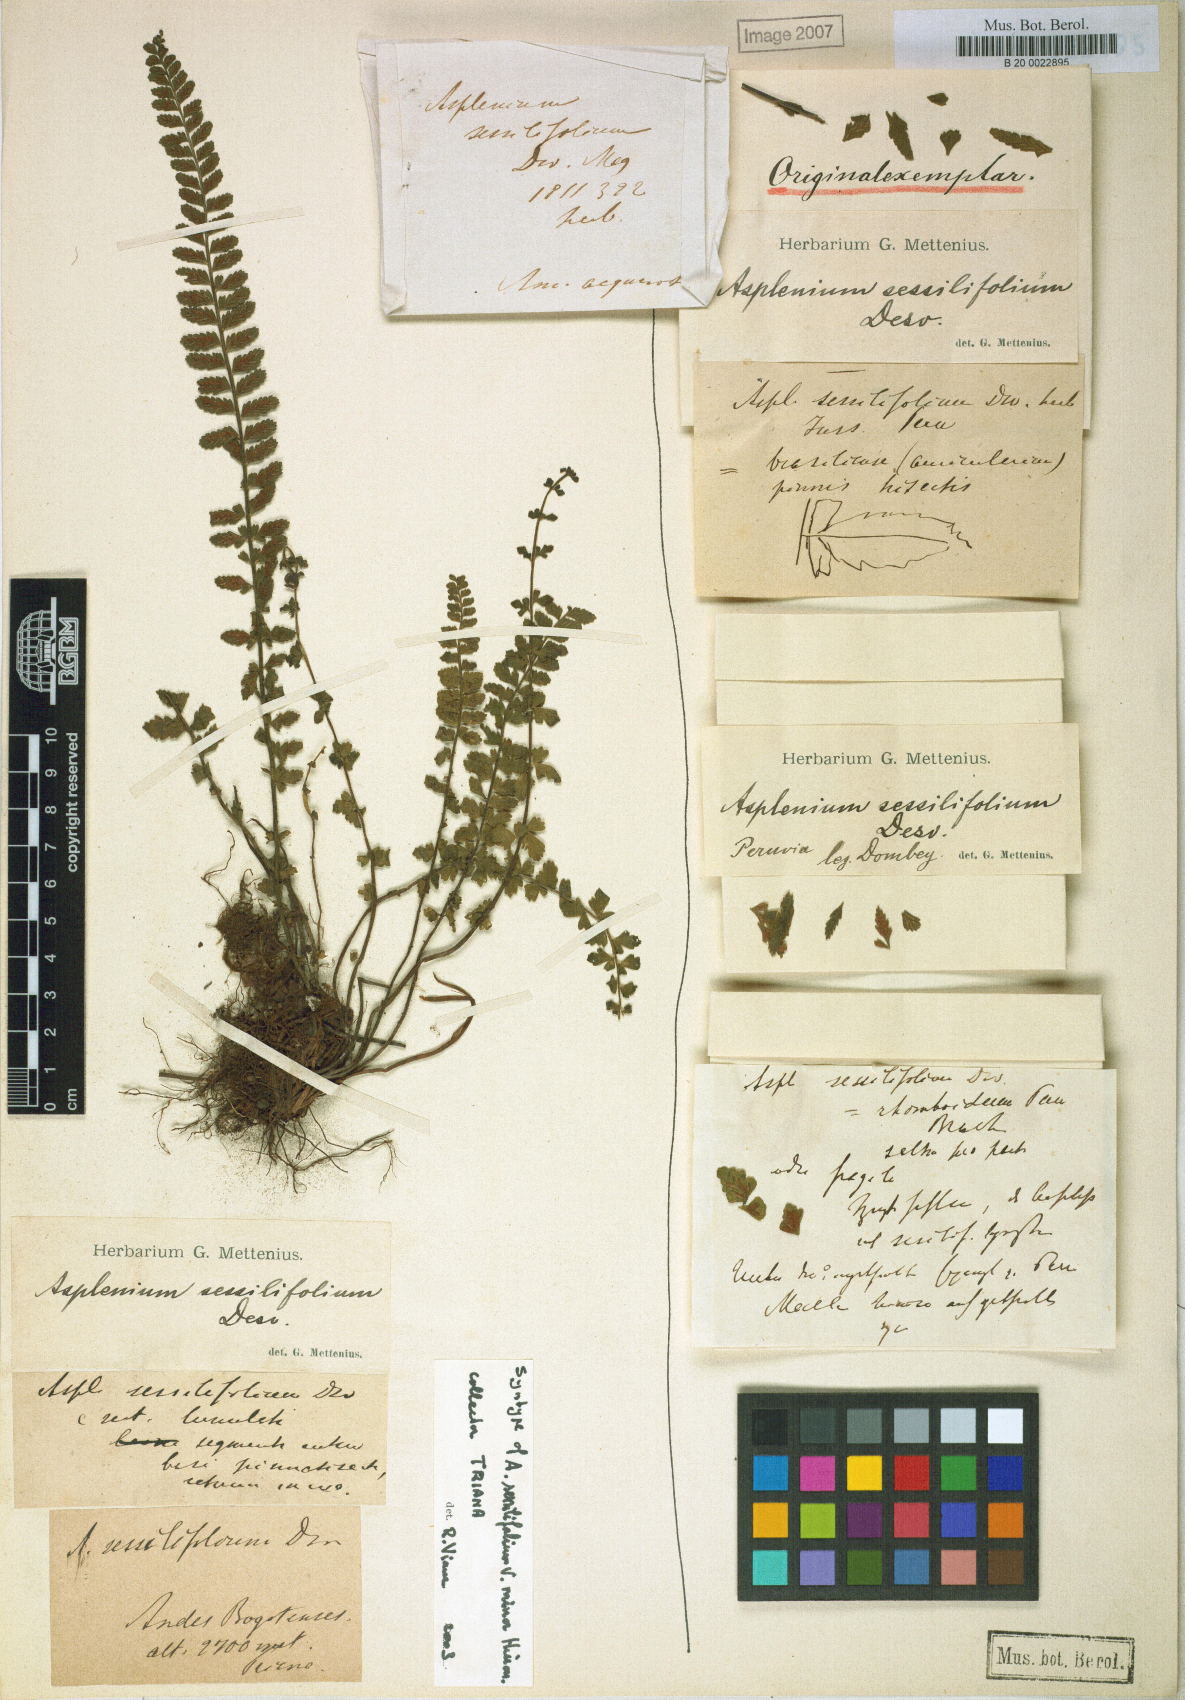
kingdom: Plantae
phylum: Tracheophyta
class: Polypodiopsida
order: Polypodiales
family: Aspleniaceae
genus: Asplenium
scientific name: Asplenium sessilifolium
